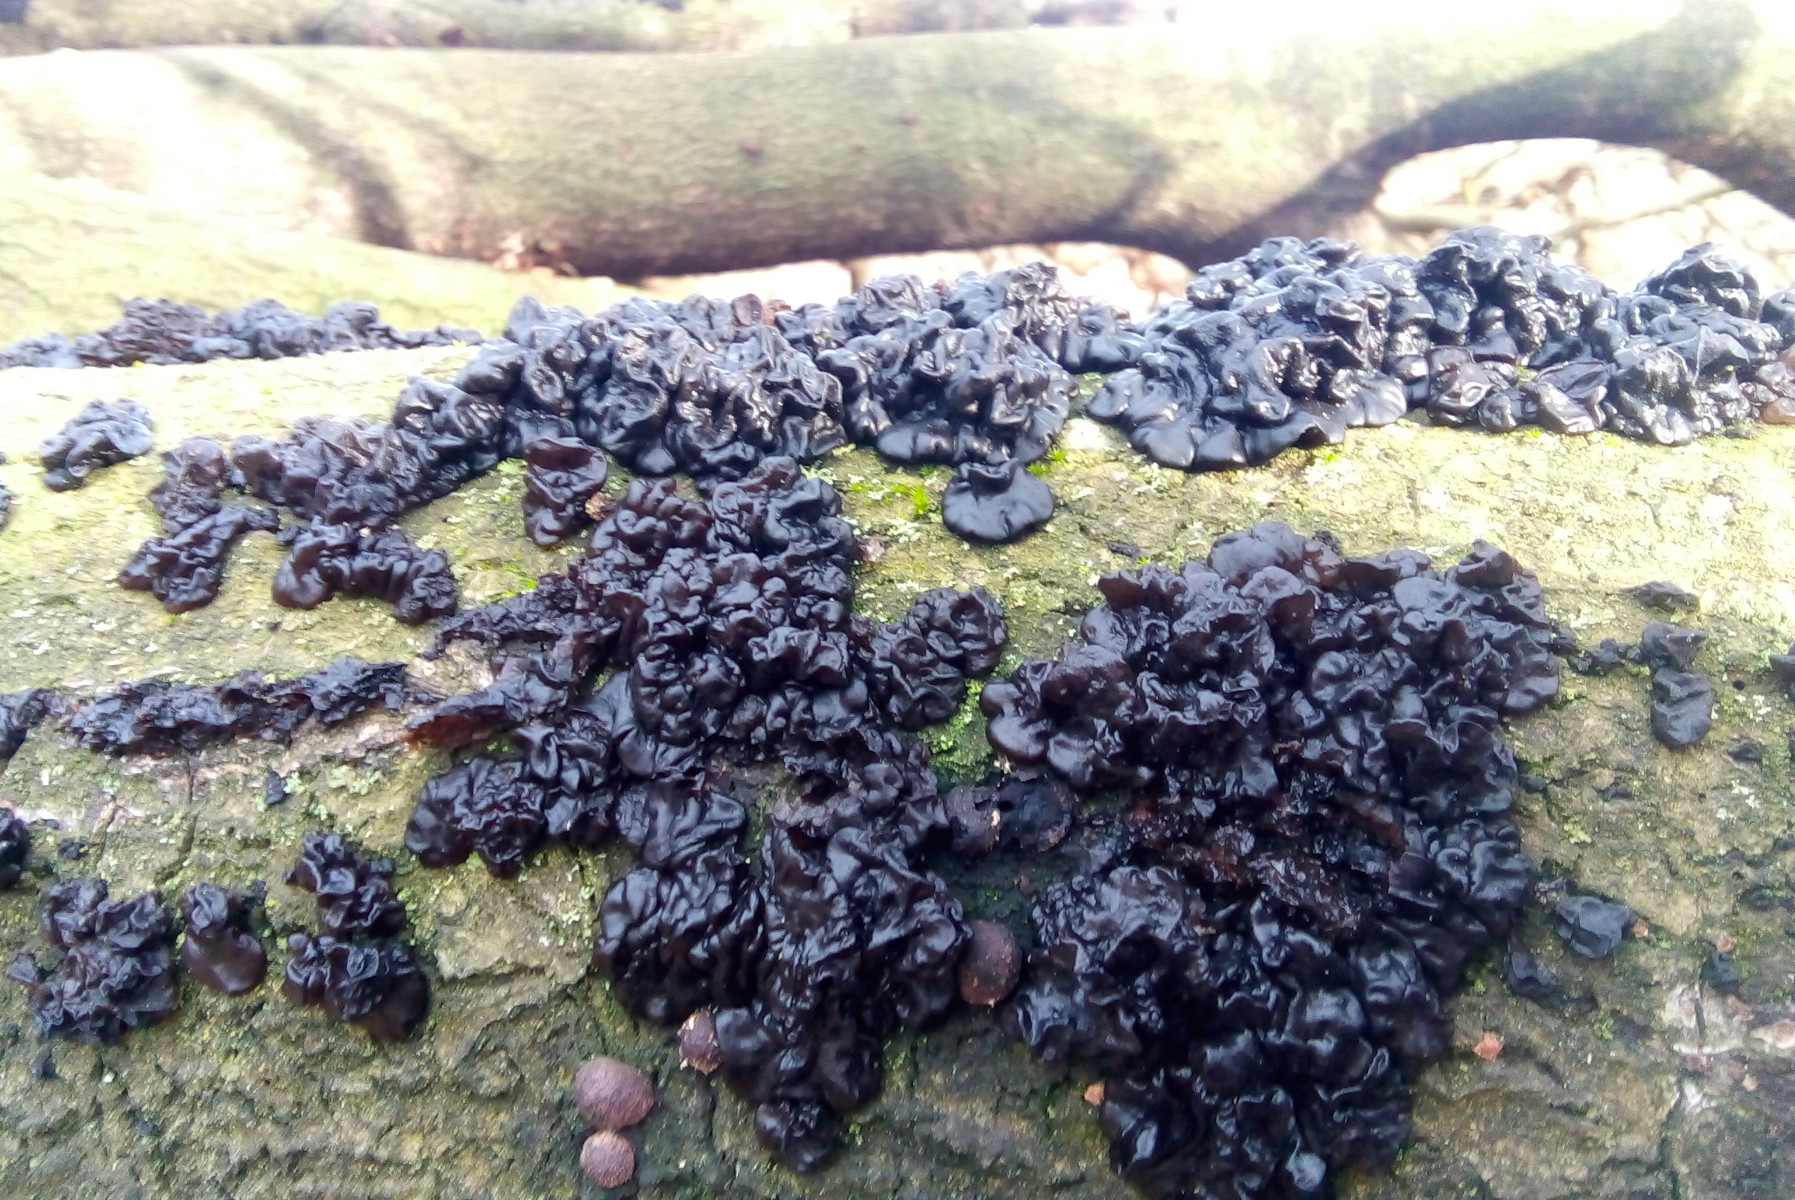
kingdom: Fungi
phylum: Basidiomycota
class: Agaricomycetes
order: Auriculariales
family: Auriculariaceae
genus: Exidia
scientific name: Exidia nigricans
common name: almindelig bævretop
